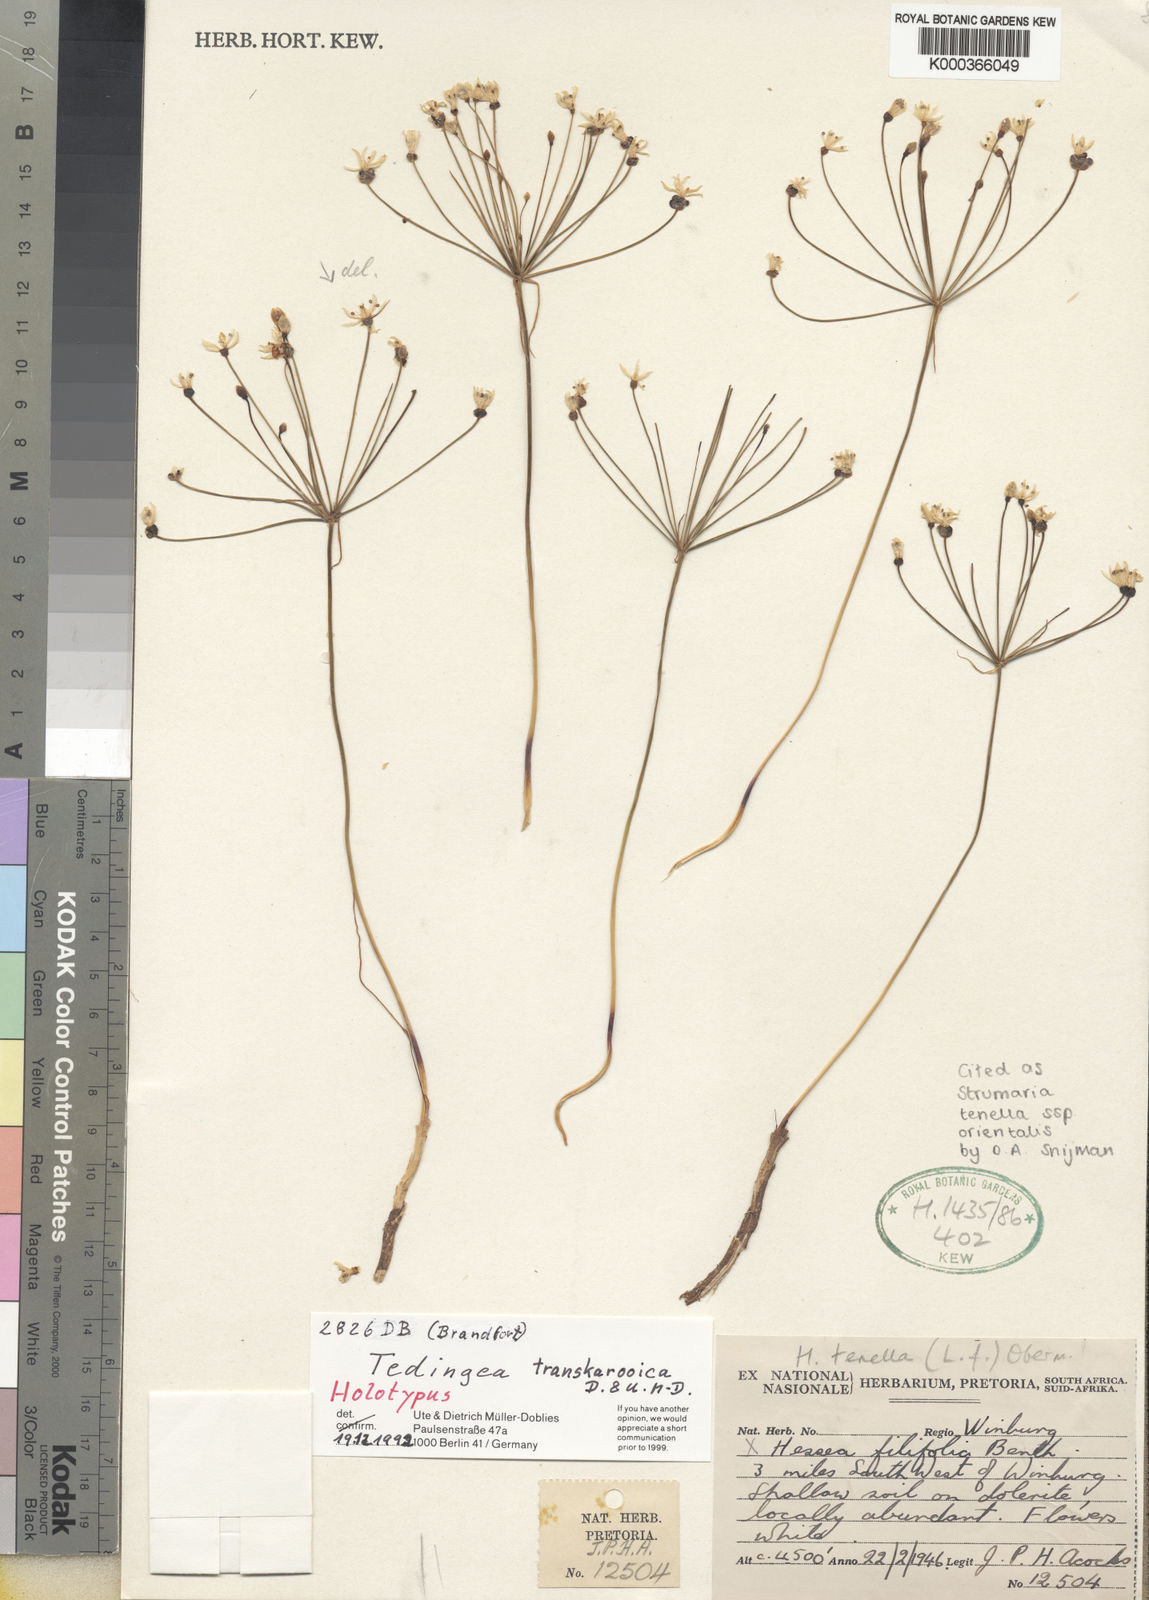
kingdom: Plantae
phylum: Tracheophyta
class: Liliopsida
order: Asparagales
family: Amaryllidaceae
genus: Strumaria
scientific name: Strumaria tenella
